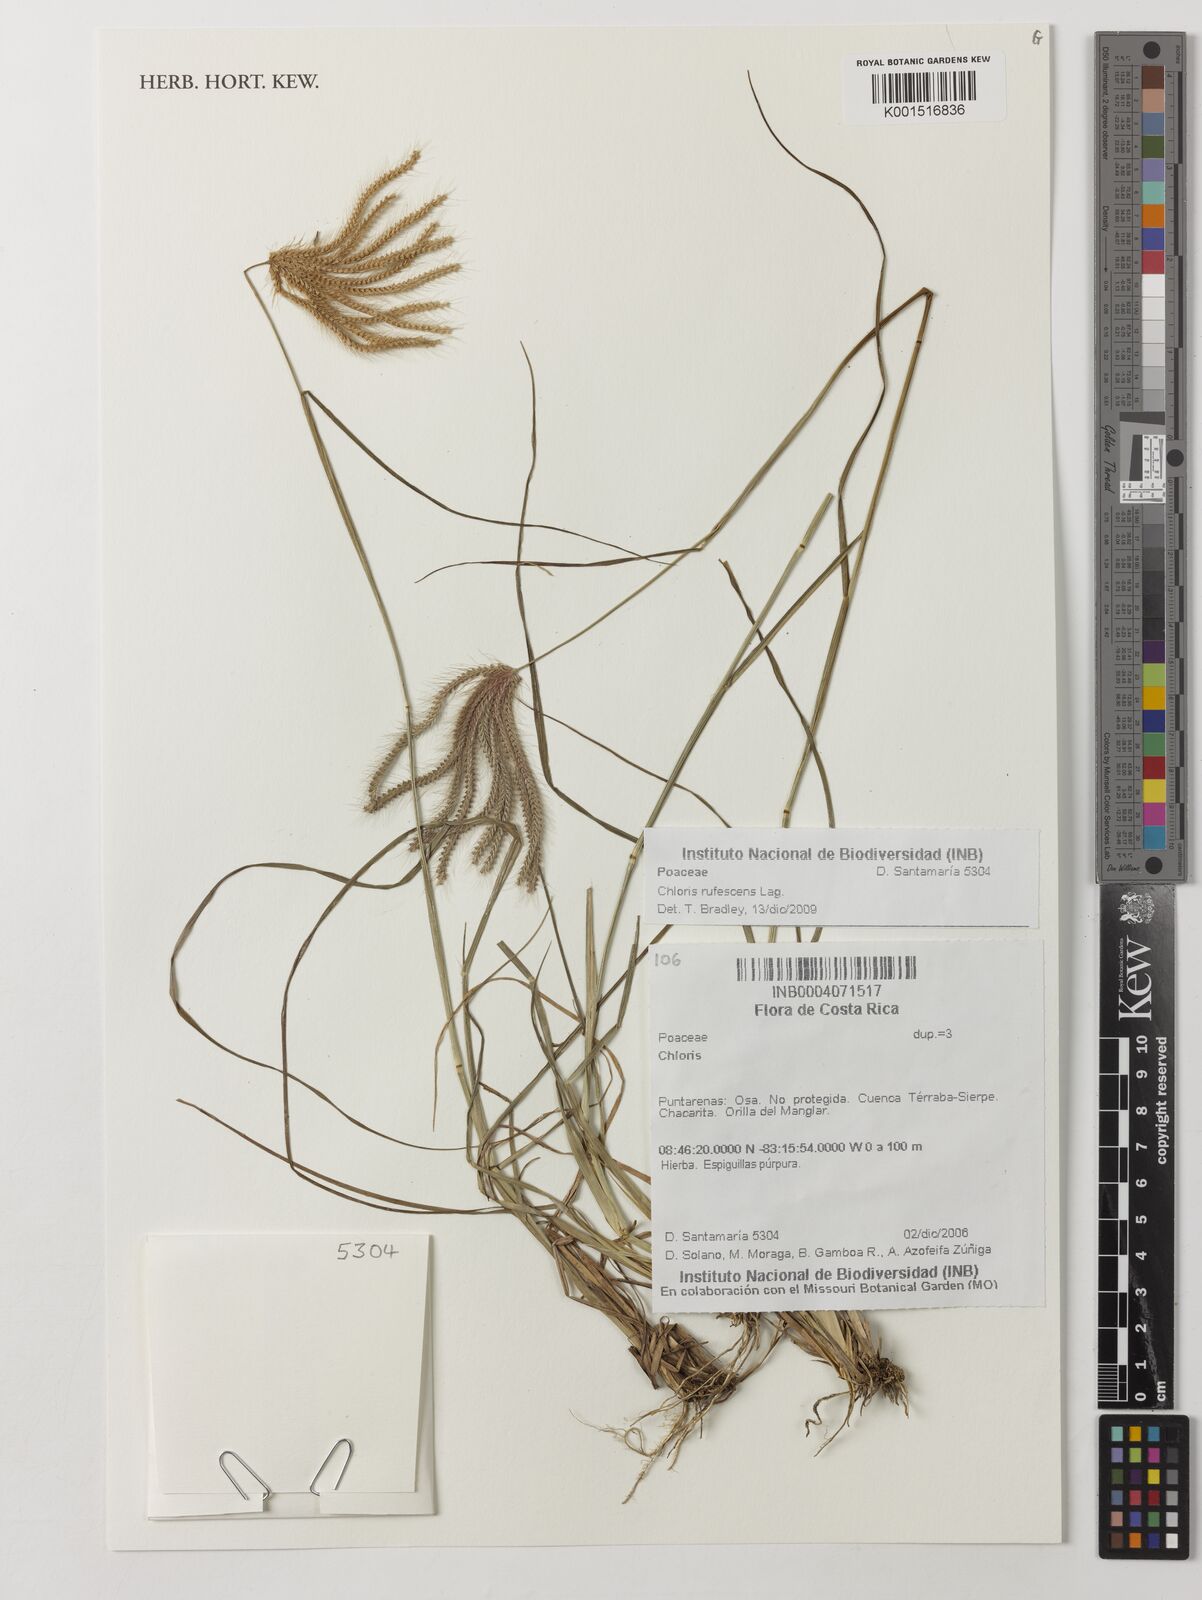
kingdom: Plantae
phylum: Tracheophyta
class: Liliopsida
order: Poales
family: Poaceae
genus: Chloris
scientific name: Chloris rufescens
